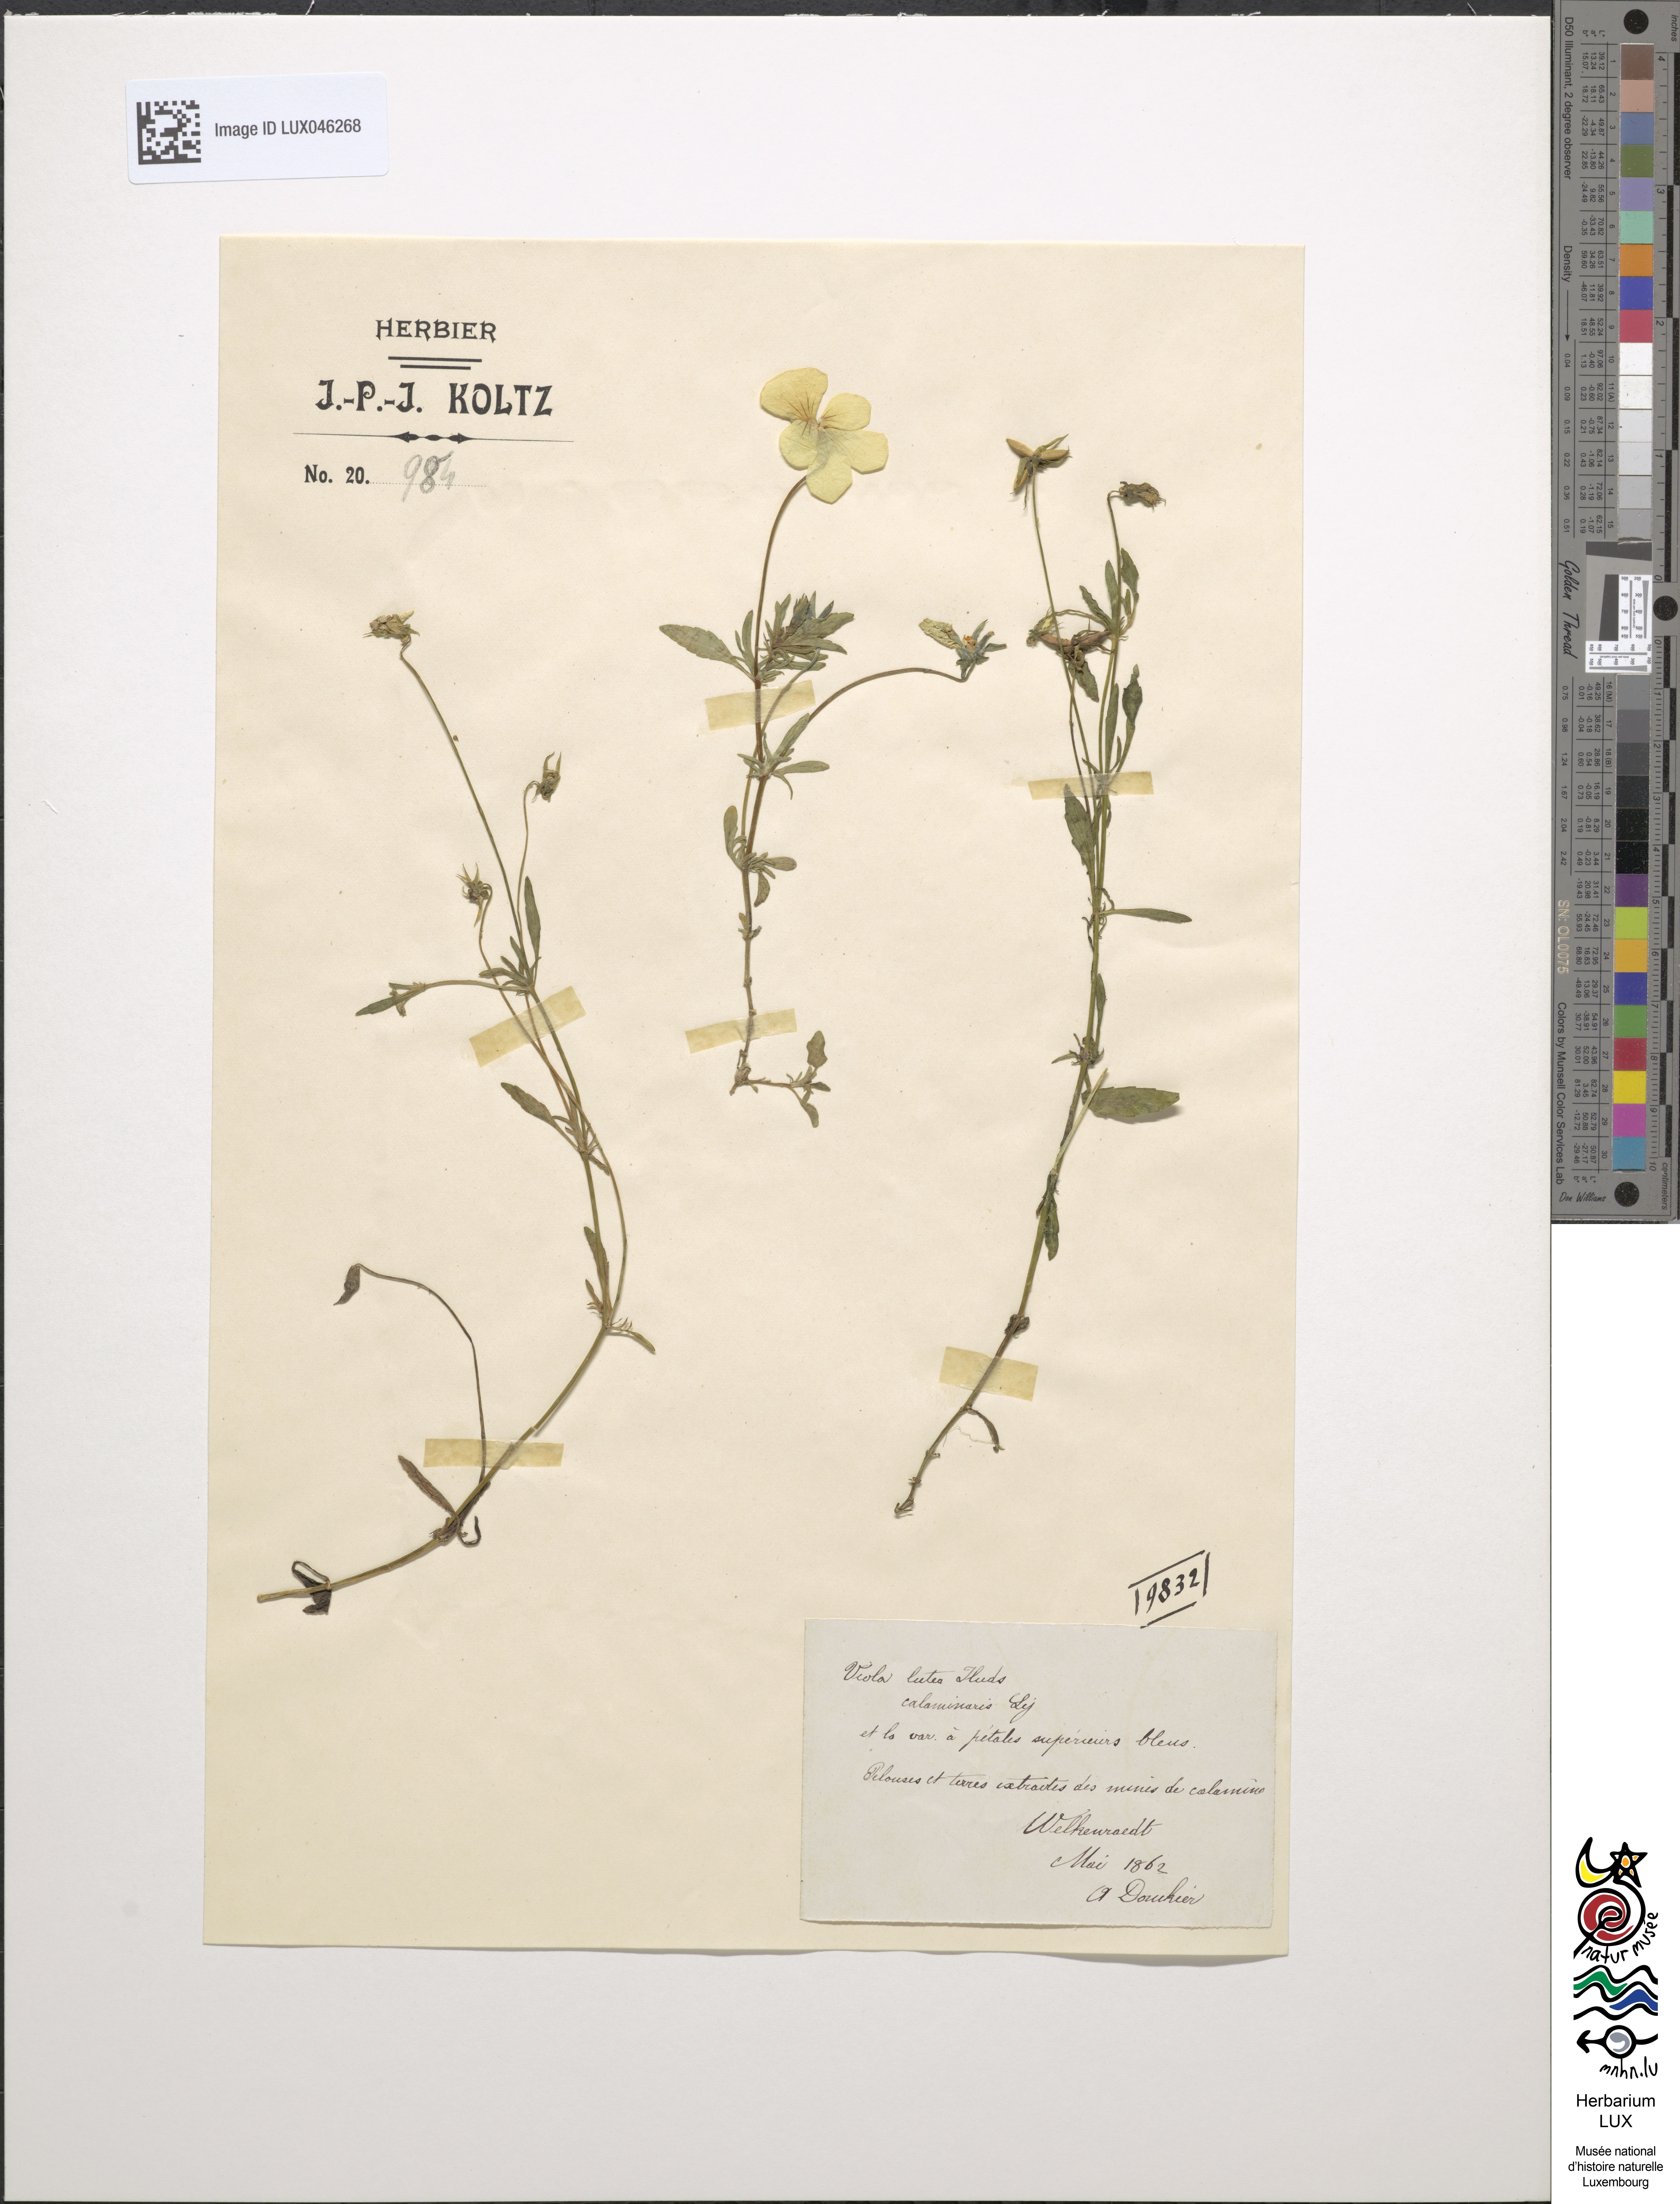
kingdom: Plantae
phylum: Tracheophyta
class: Magnoliopsida
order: Malpighiales
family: Violaceae
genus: Viola
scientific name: Viola lutea
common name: Mountain pansy
